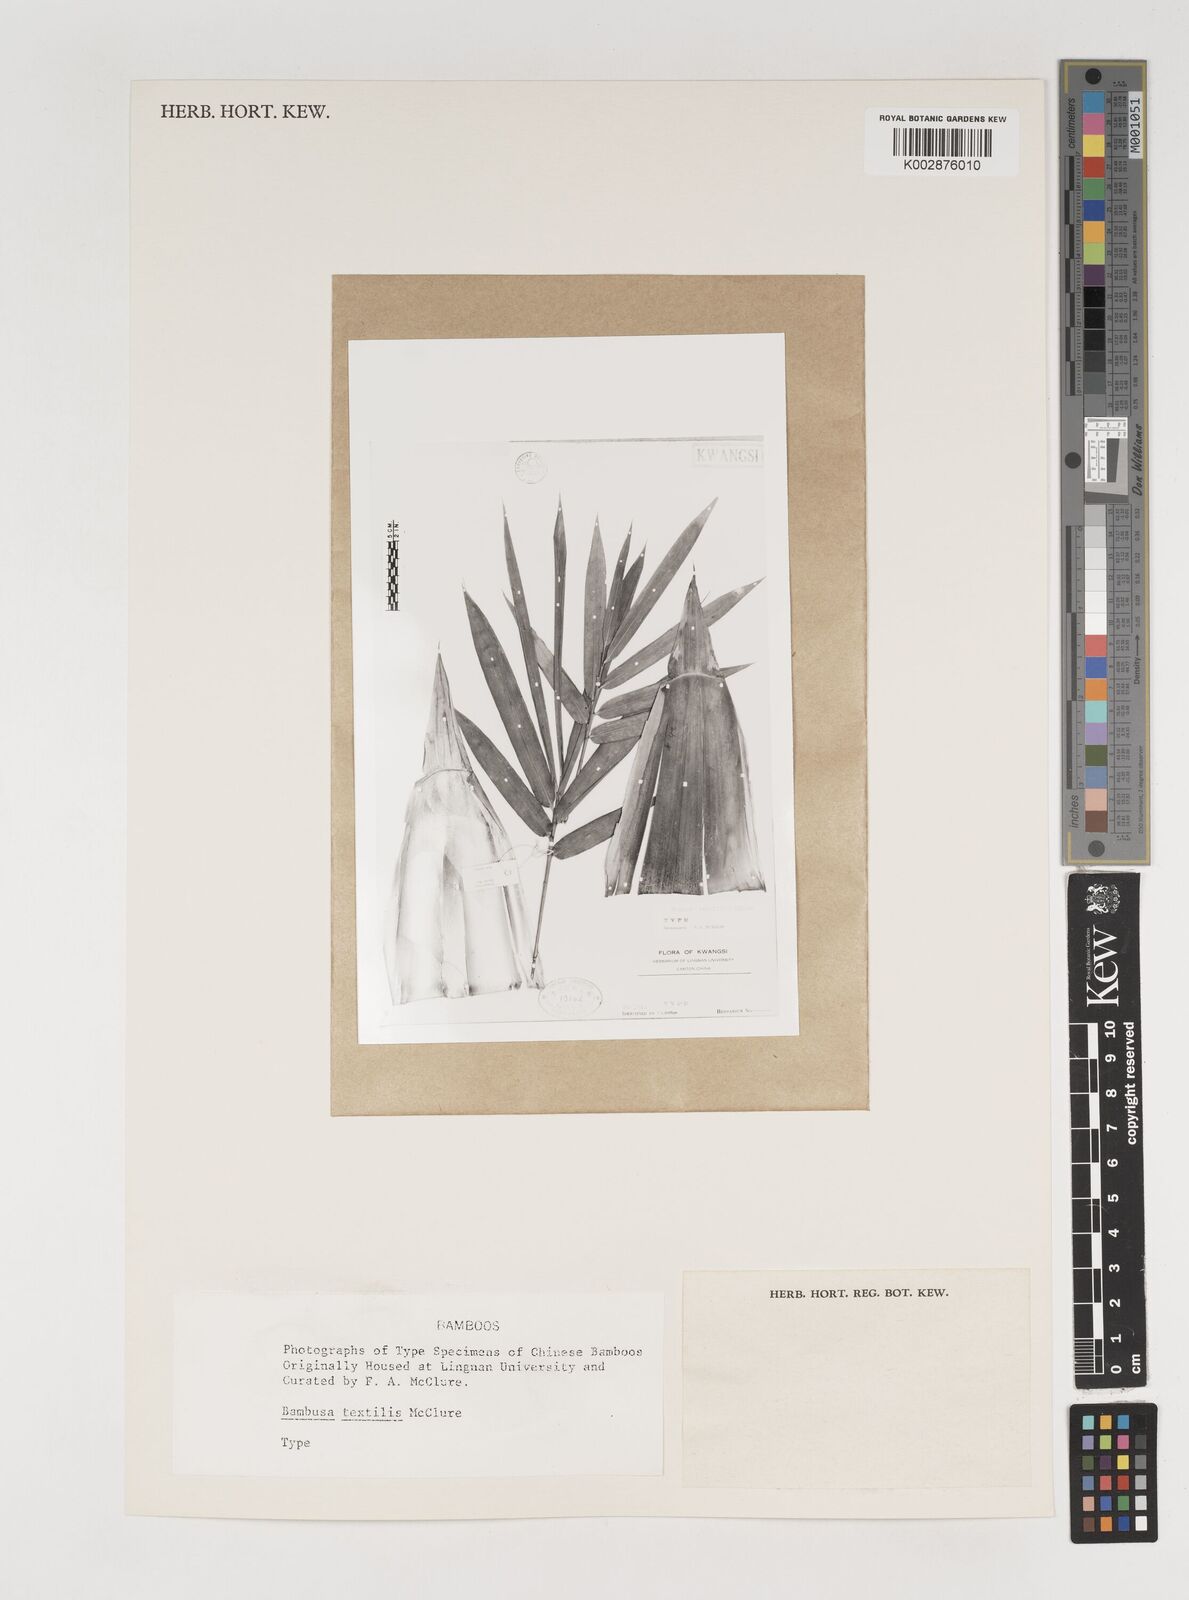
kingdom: Plantae
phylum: Tracheophyta
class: Liliopsida
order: Poales
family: Poaceae
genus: Bambusa
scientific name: Bambusa albolineata
